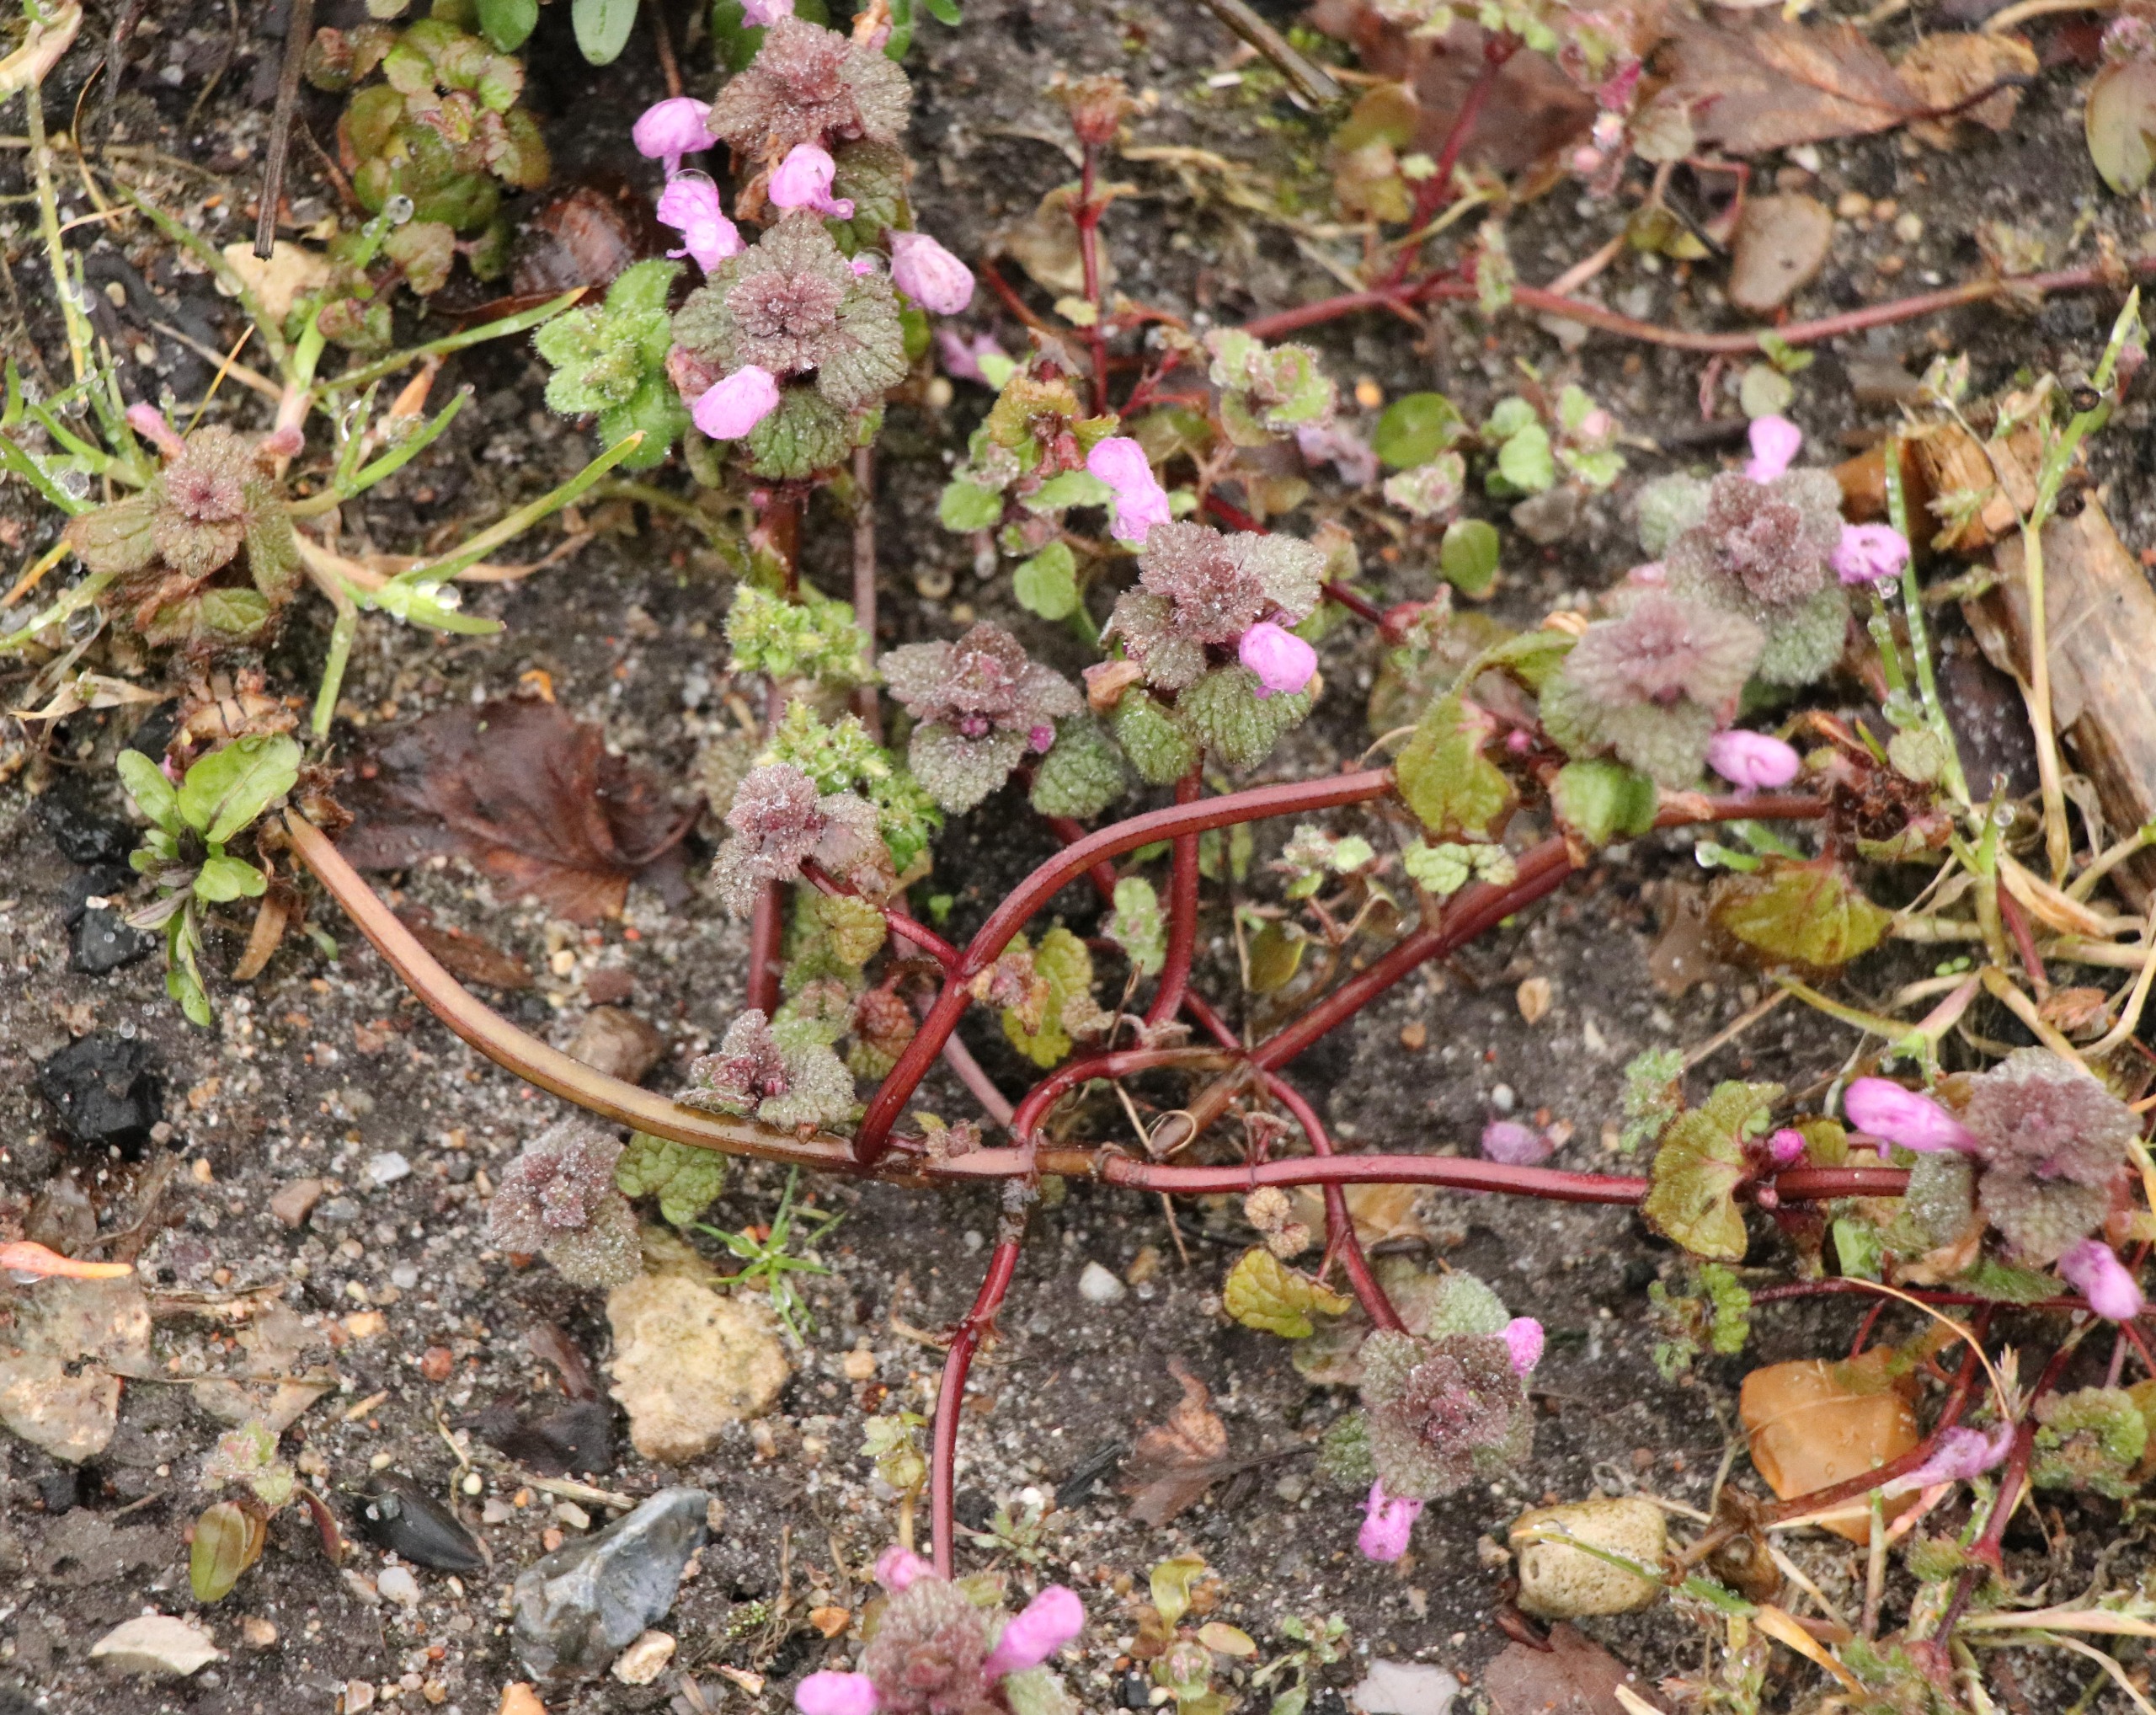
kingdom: Plantae
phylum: Tracheophyta
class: Magnoliopsida
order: Lamiales
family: Lamiaceae
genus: Lamium
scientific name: Lamium purpureum
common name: Rød tvetand
